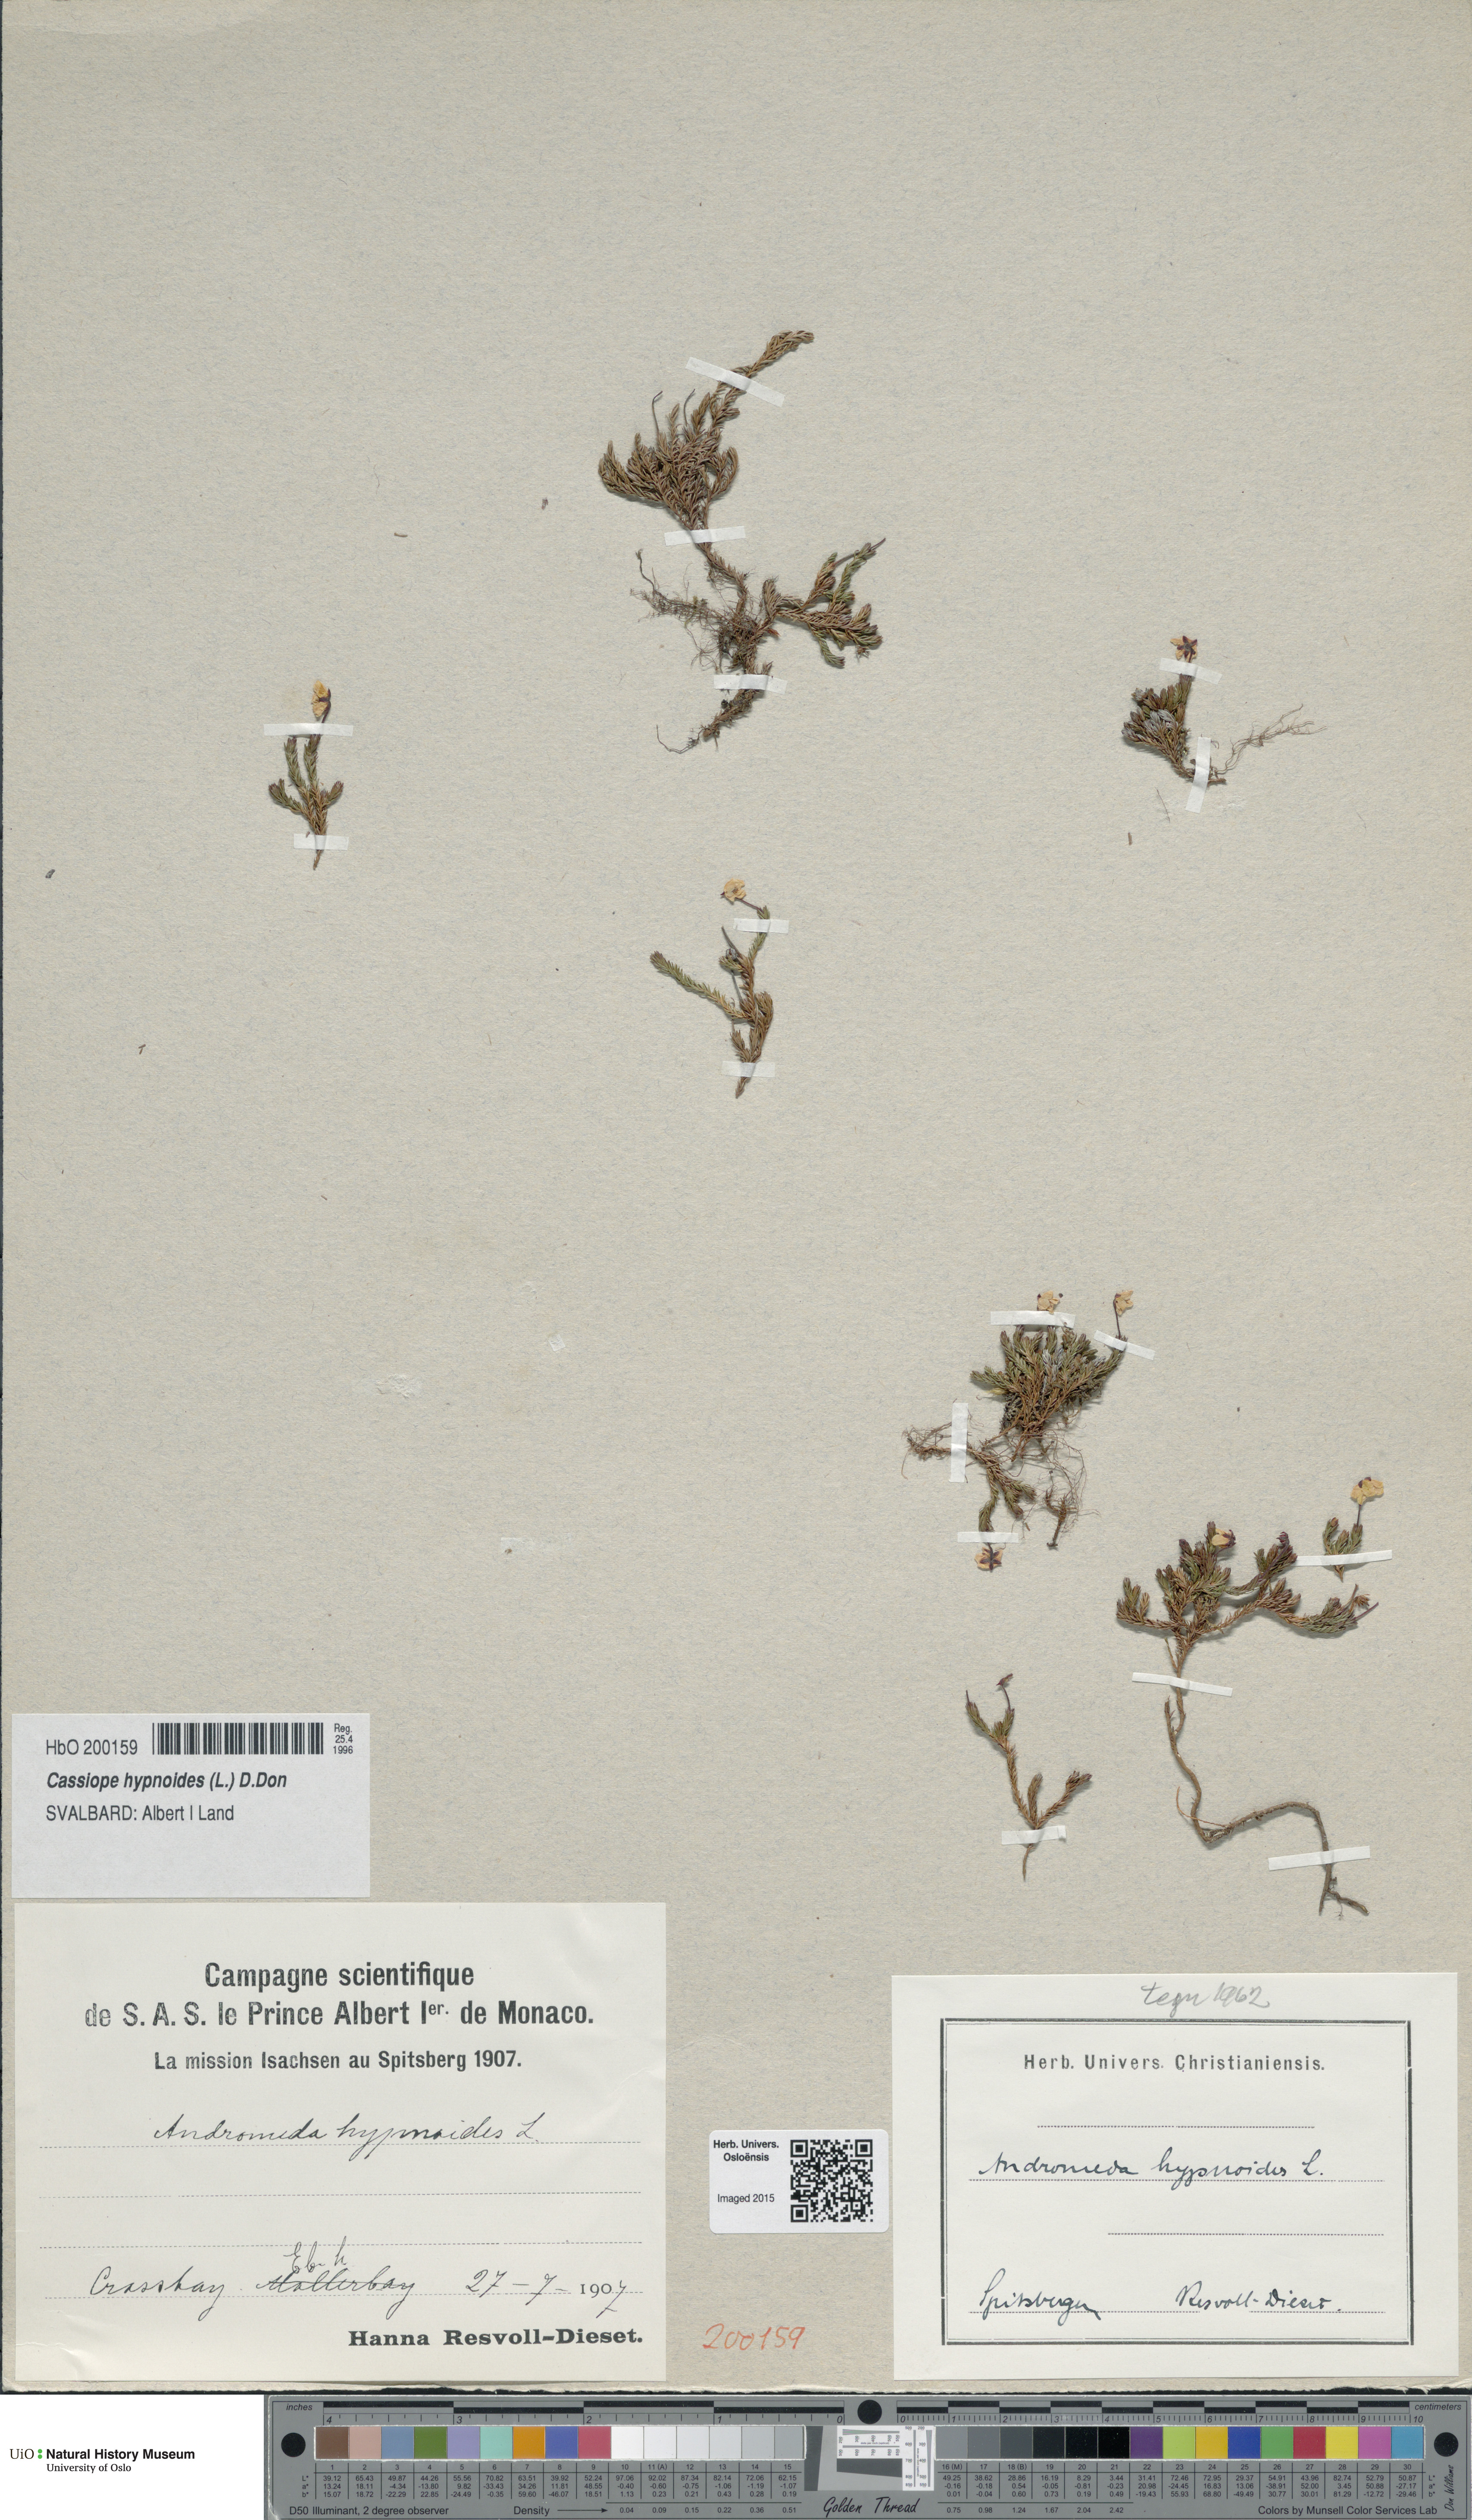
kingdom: Plantae
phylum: Tracheophyta
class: Magnoliopsida
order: Ericales
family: Ericaceae
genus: Harrimanella
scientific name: Harrimanella hypnoides
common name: Moss bell heather
